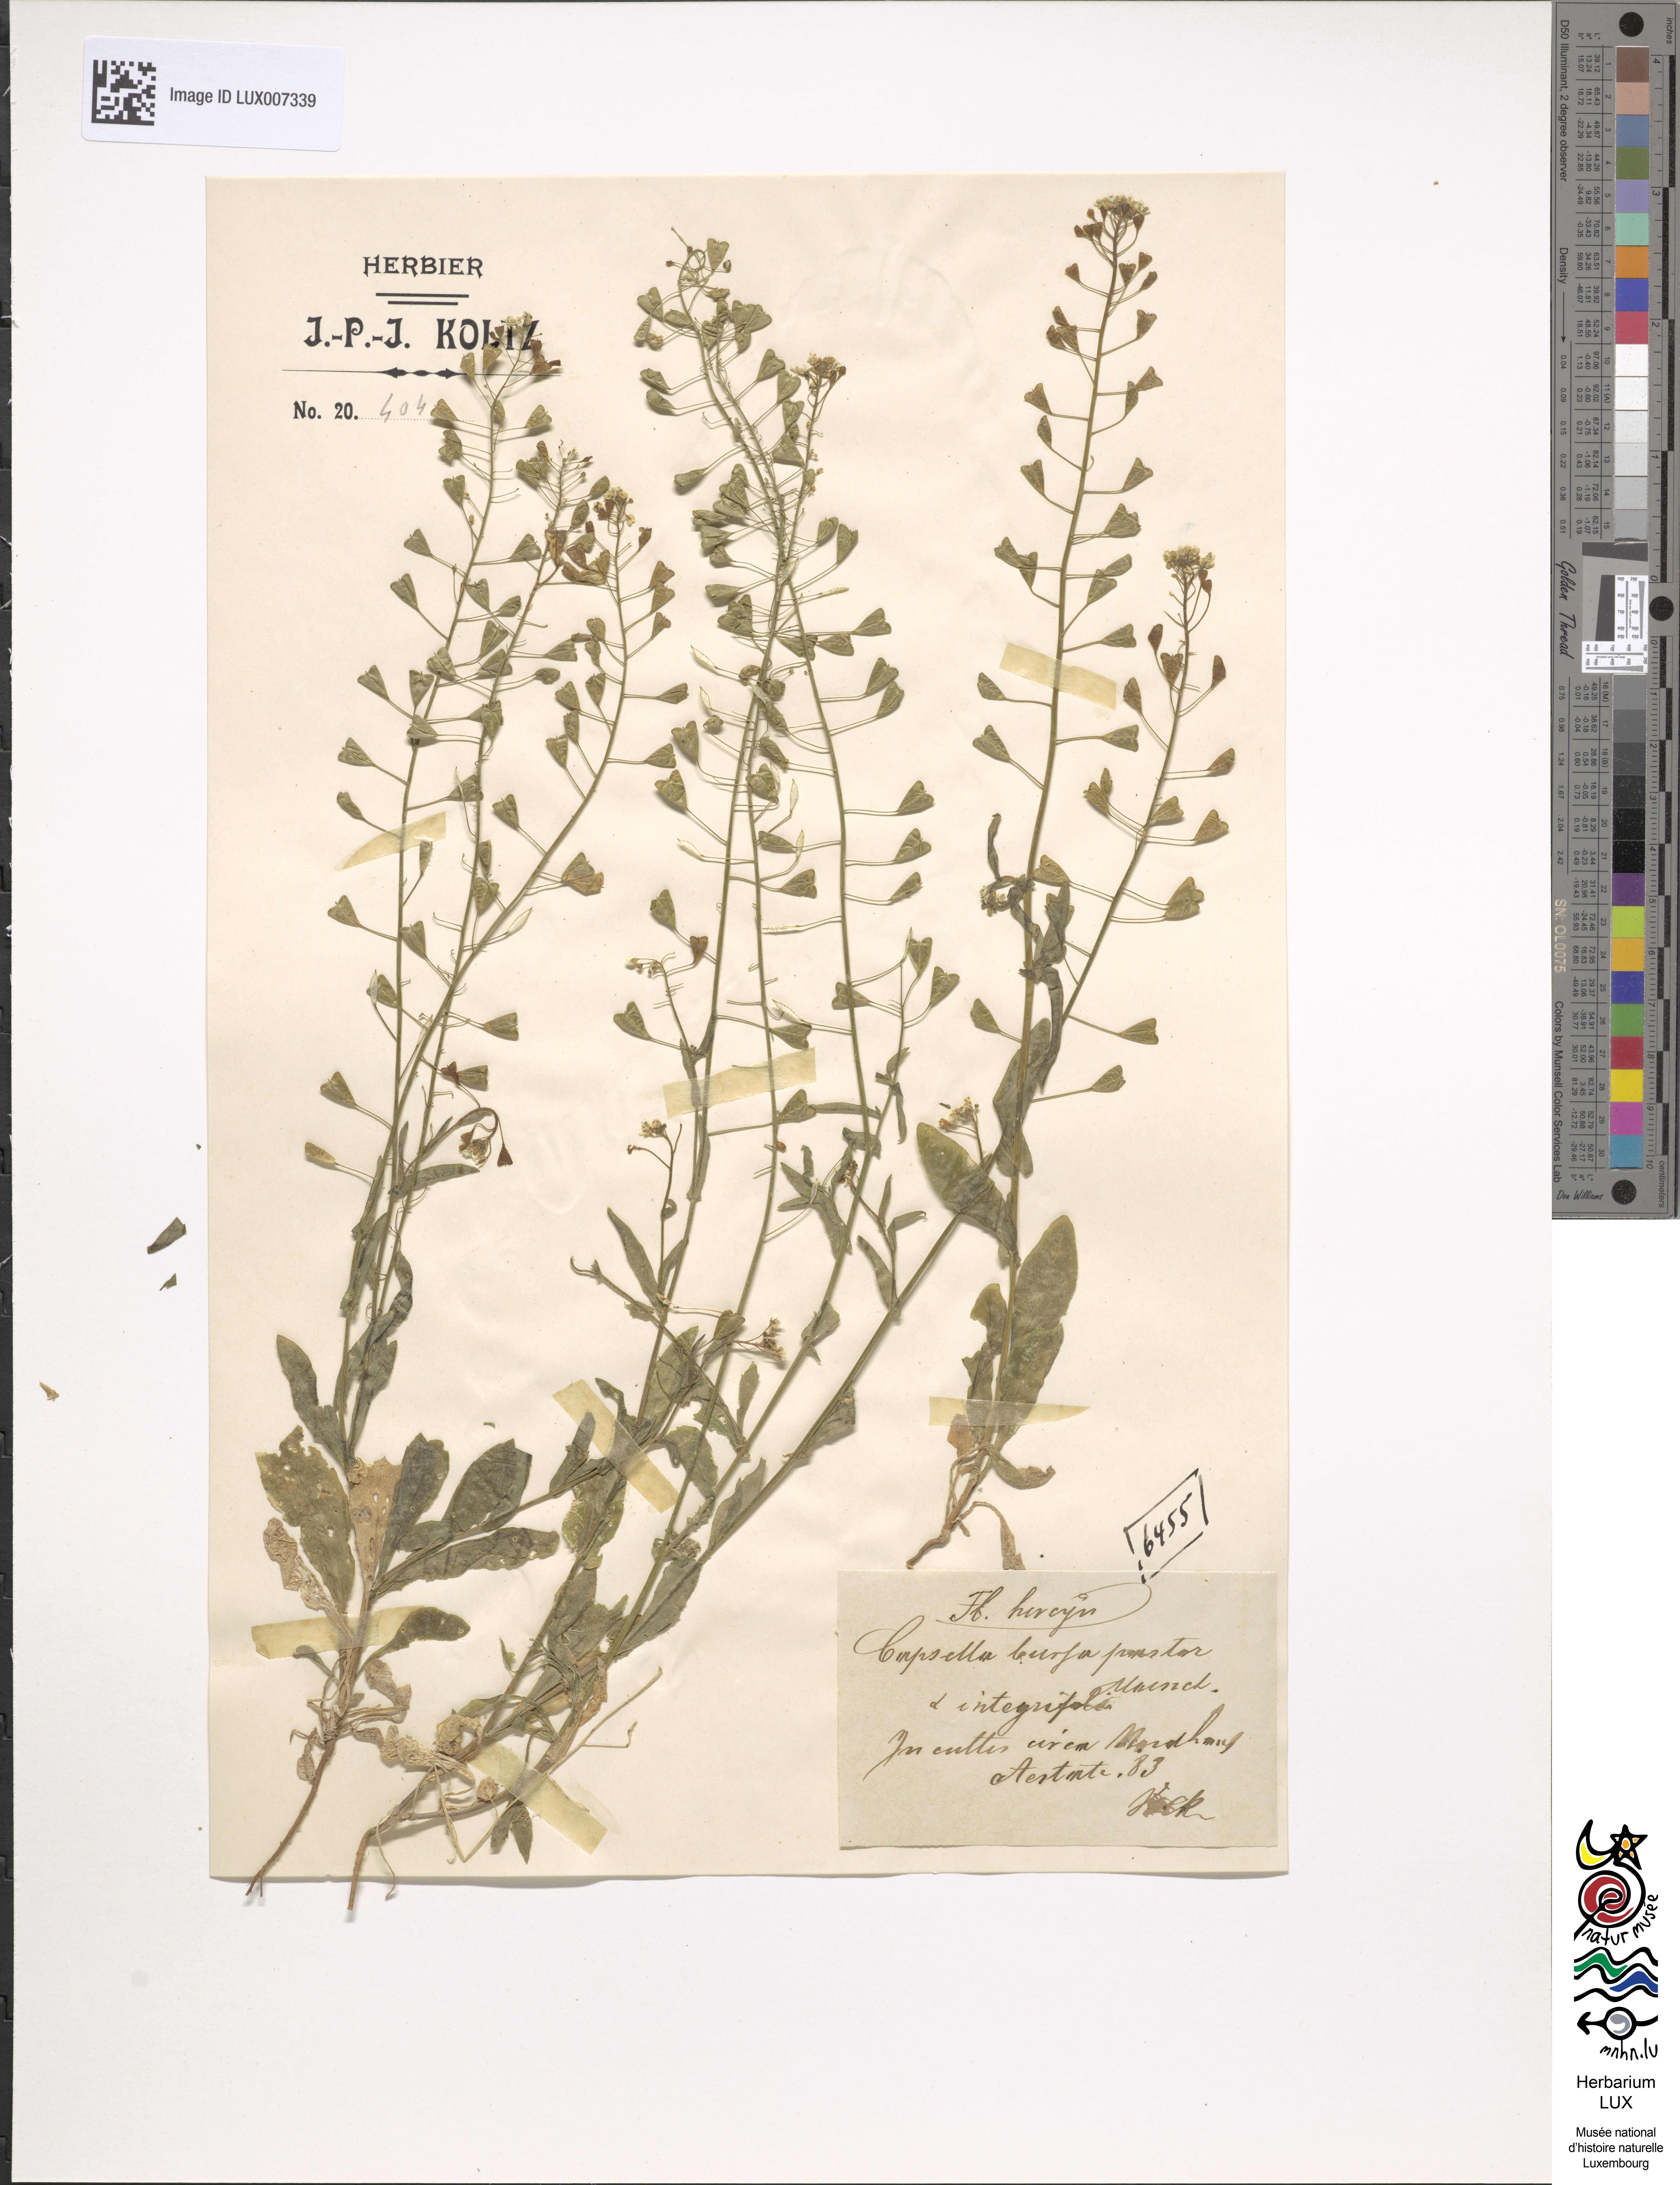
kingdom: Plantae
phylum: Tracheophyta
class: Magnoliopsida
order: Brassicales
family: Brassicaceae
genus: Capsella
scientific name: Capsella bursa-pastoris
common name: Shepherd's purse
